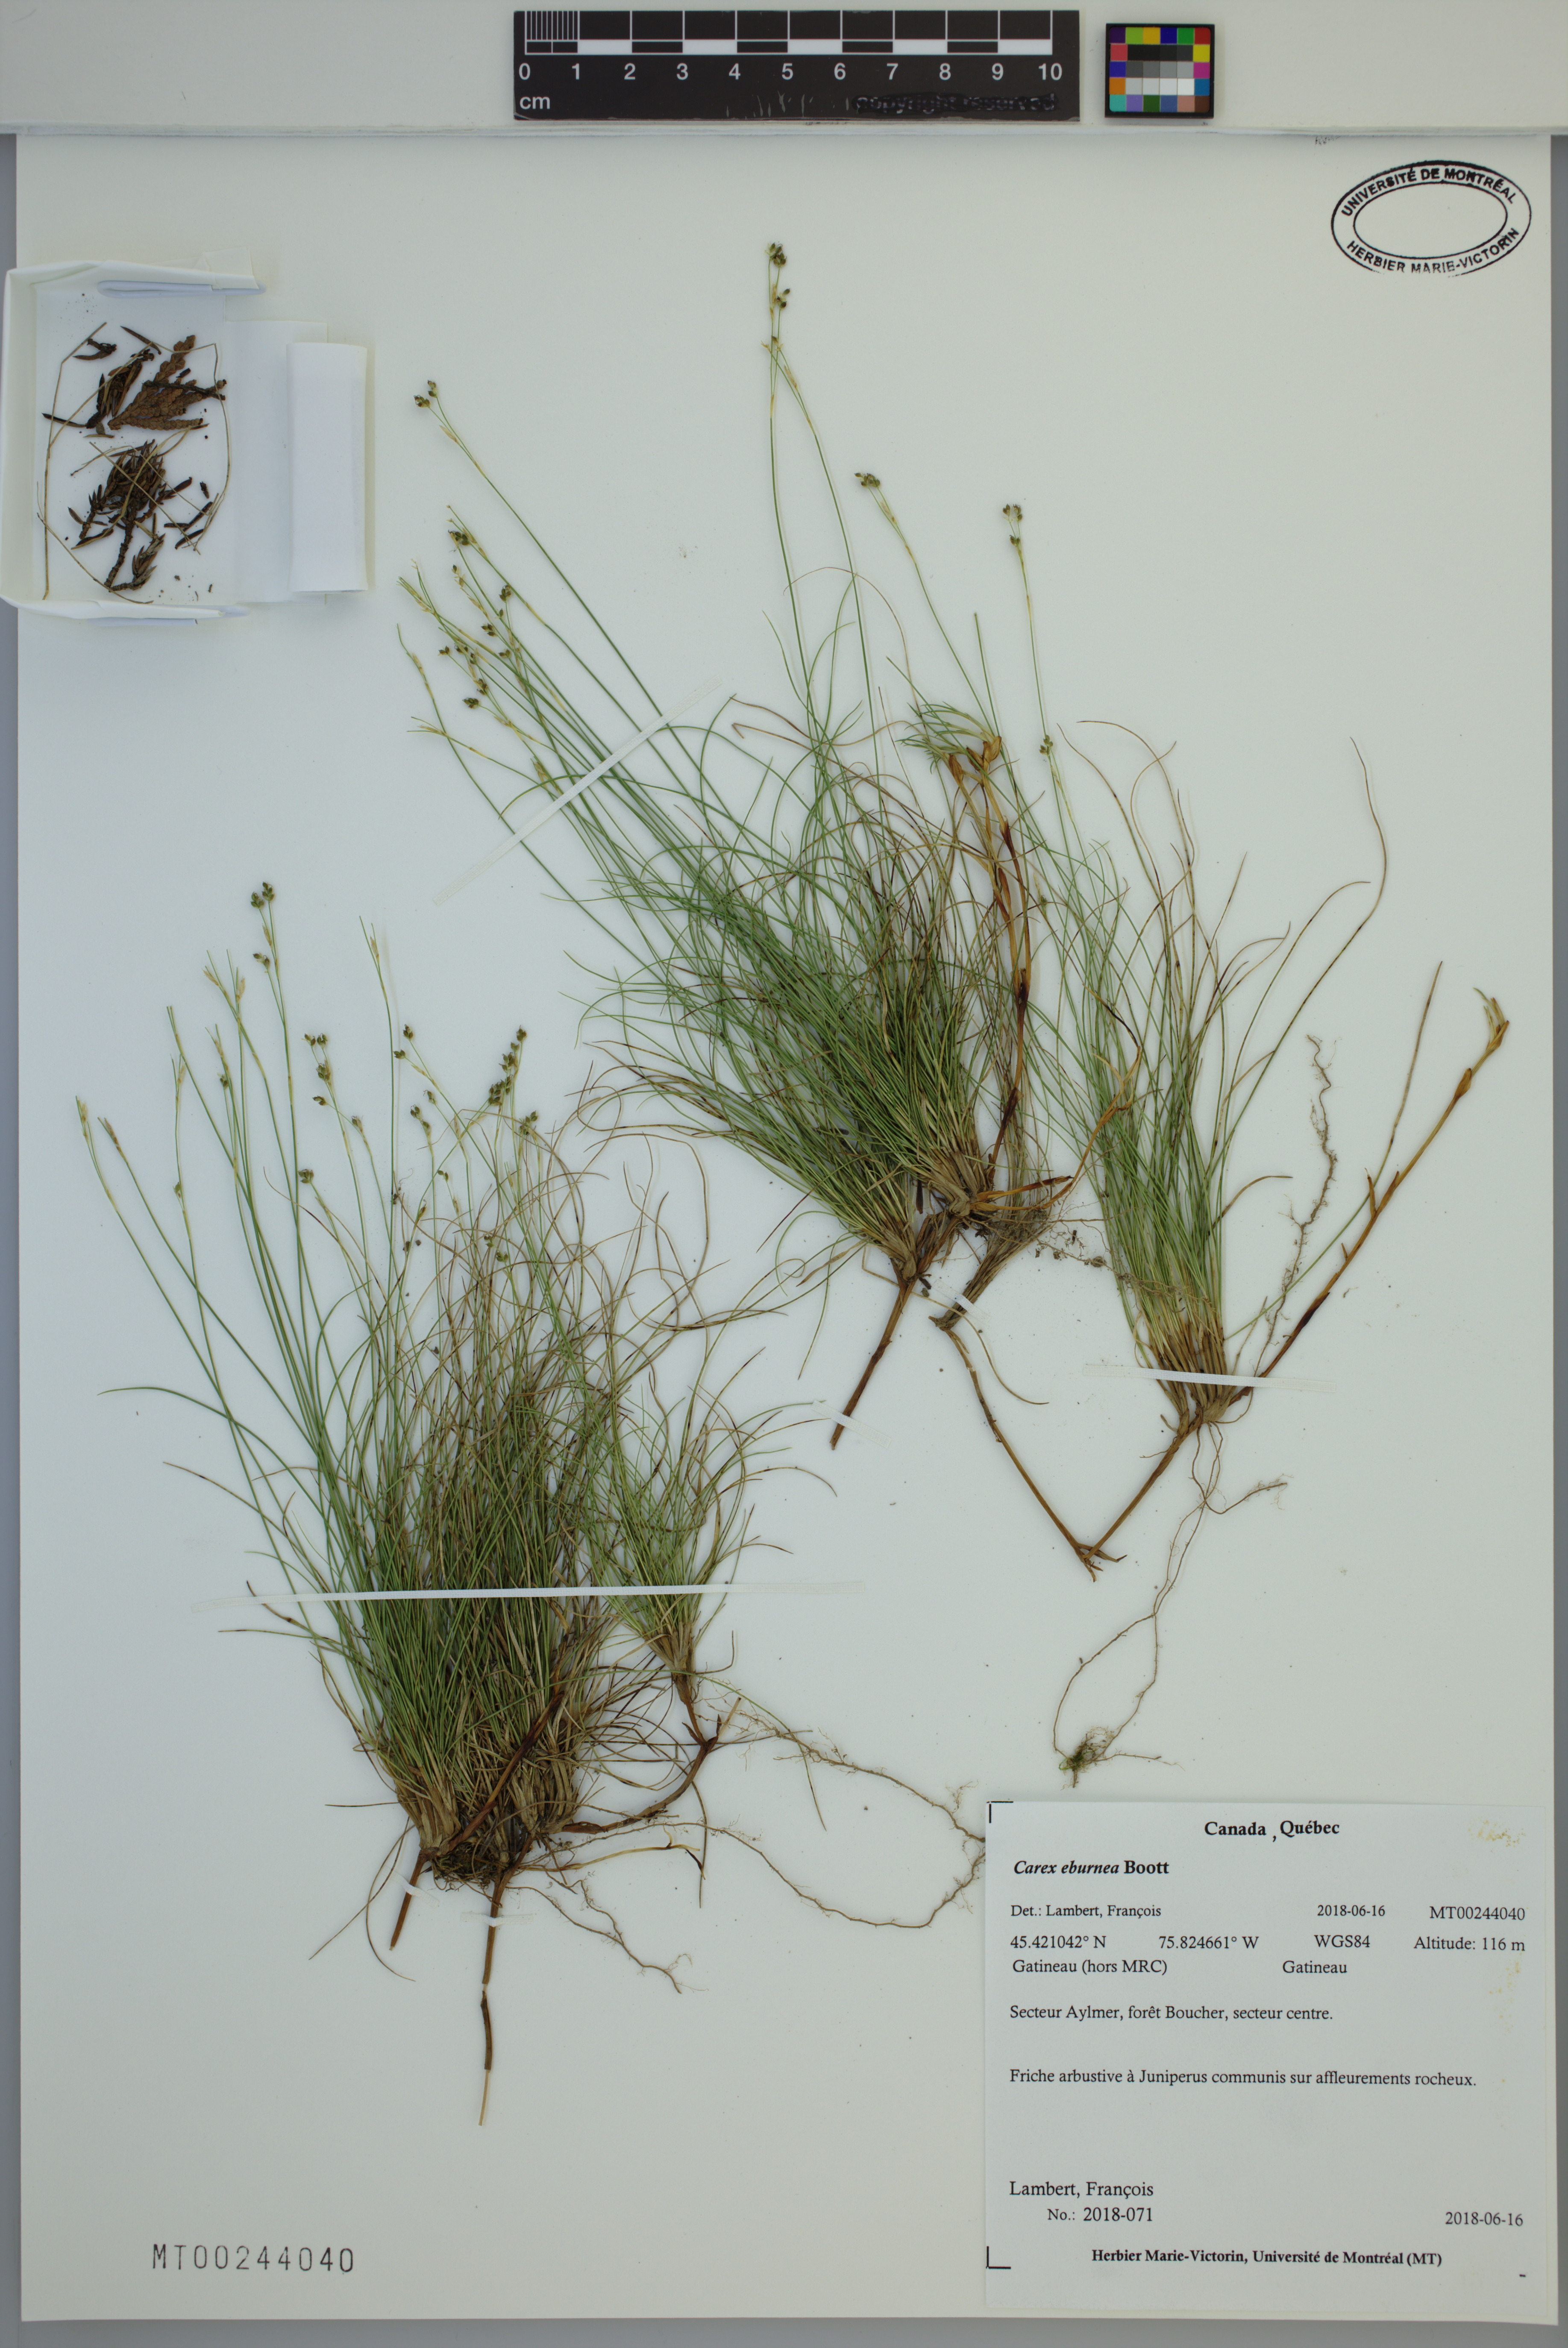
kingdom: Plantae
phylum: Tracheophyta
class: Liliopsida
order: Poales
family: Cyperaceae
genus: Carex
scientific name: Carex eburnea
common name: Bristle-leaved sedge
